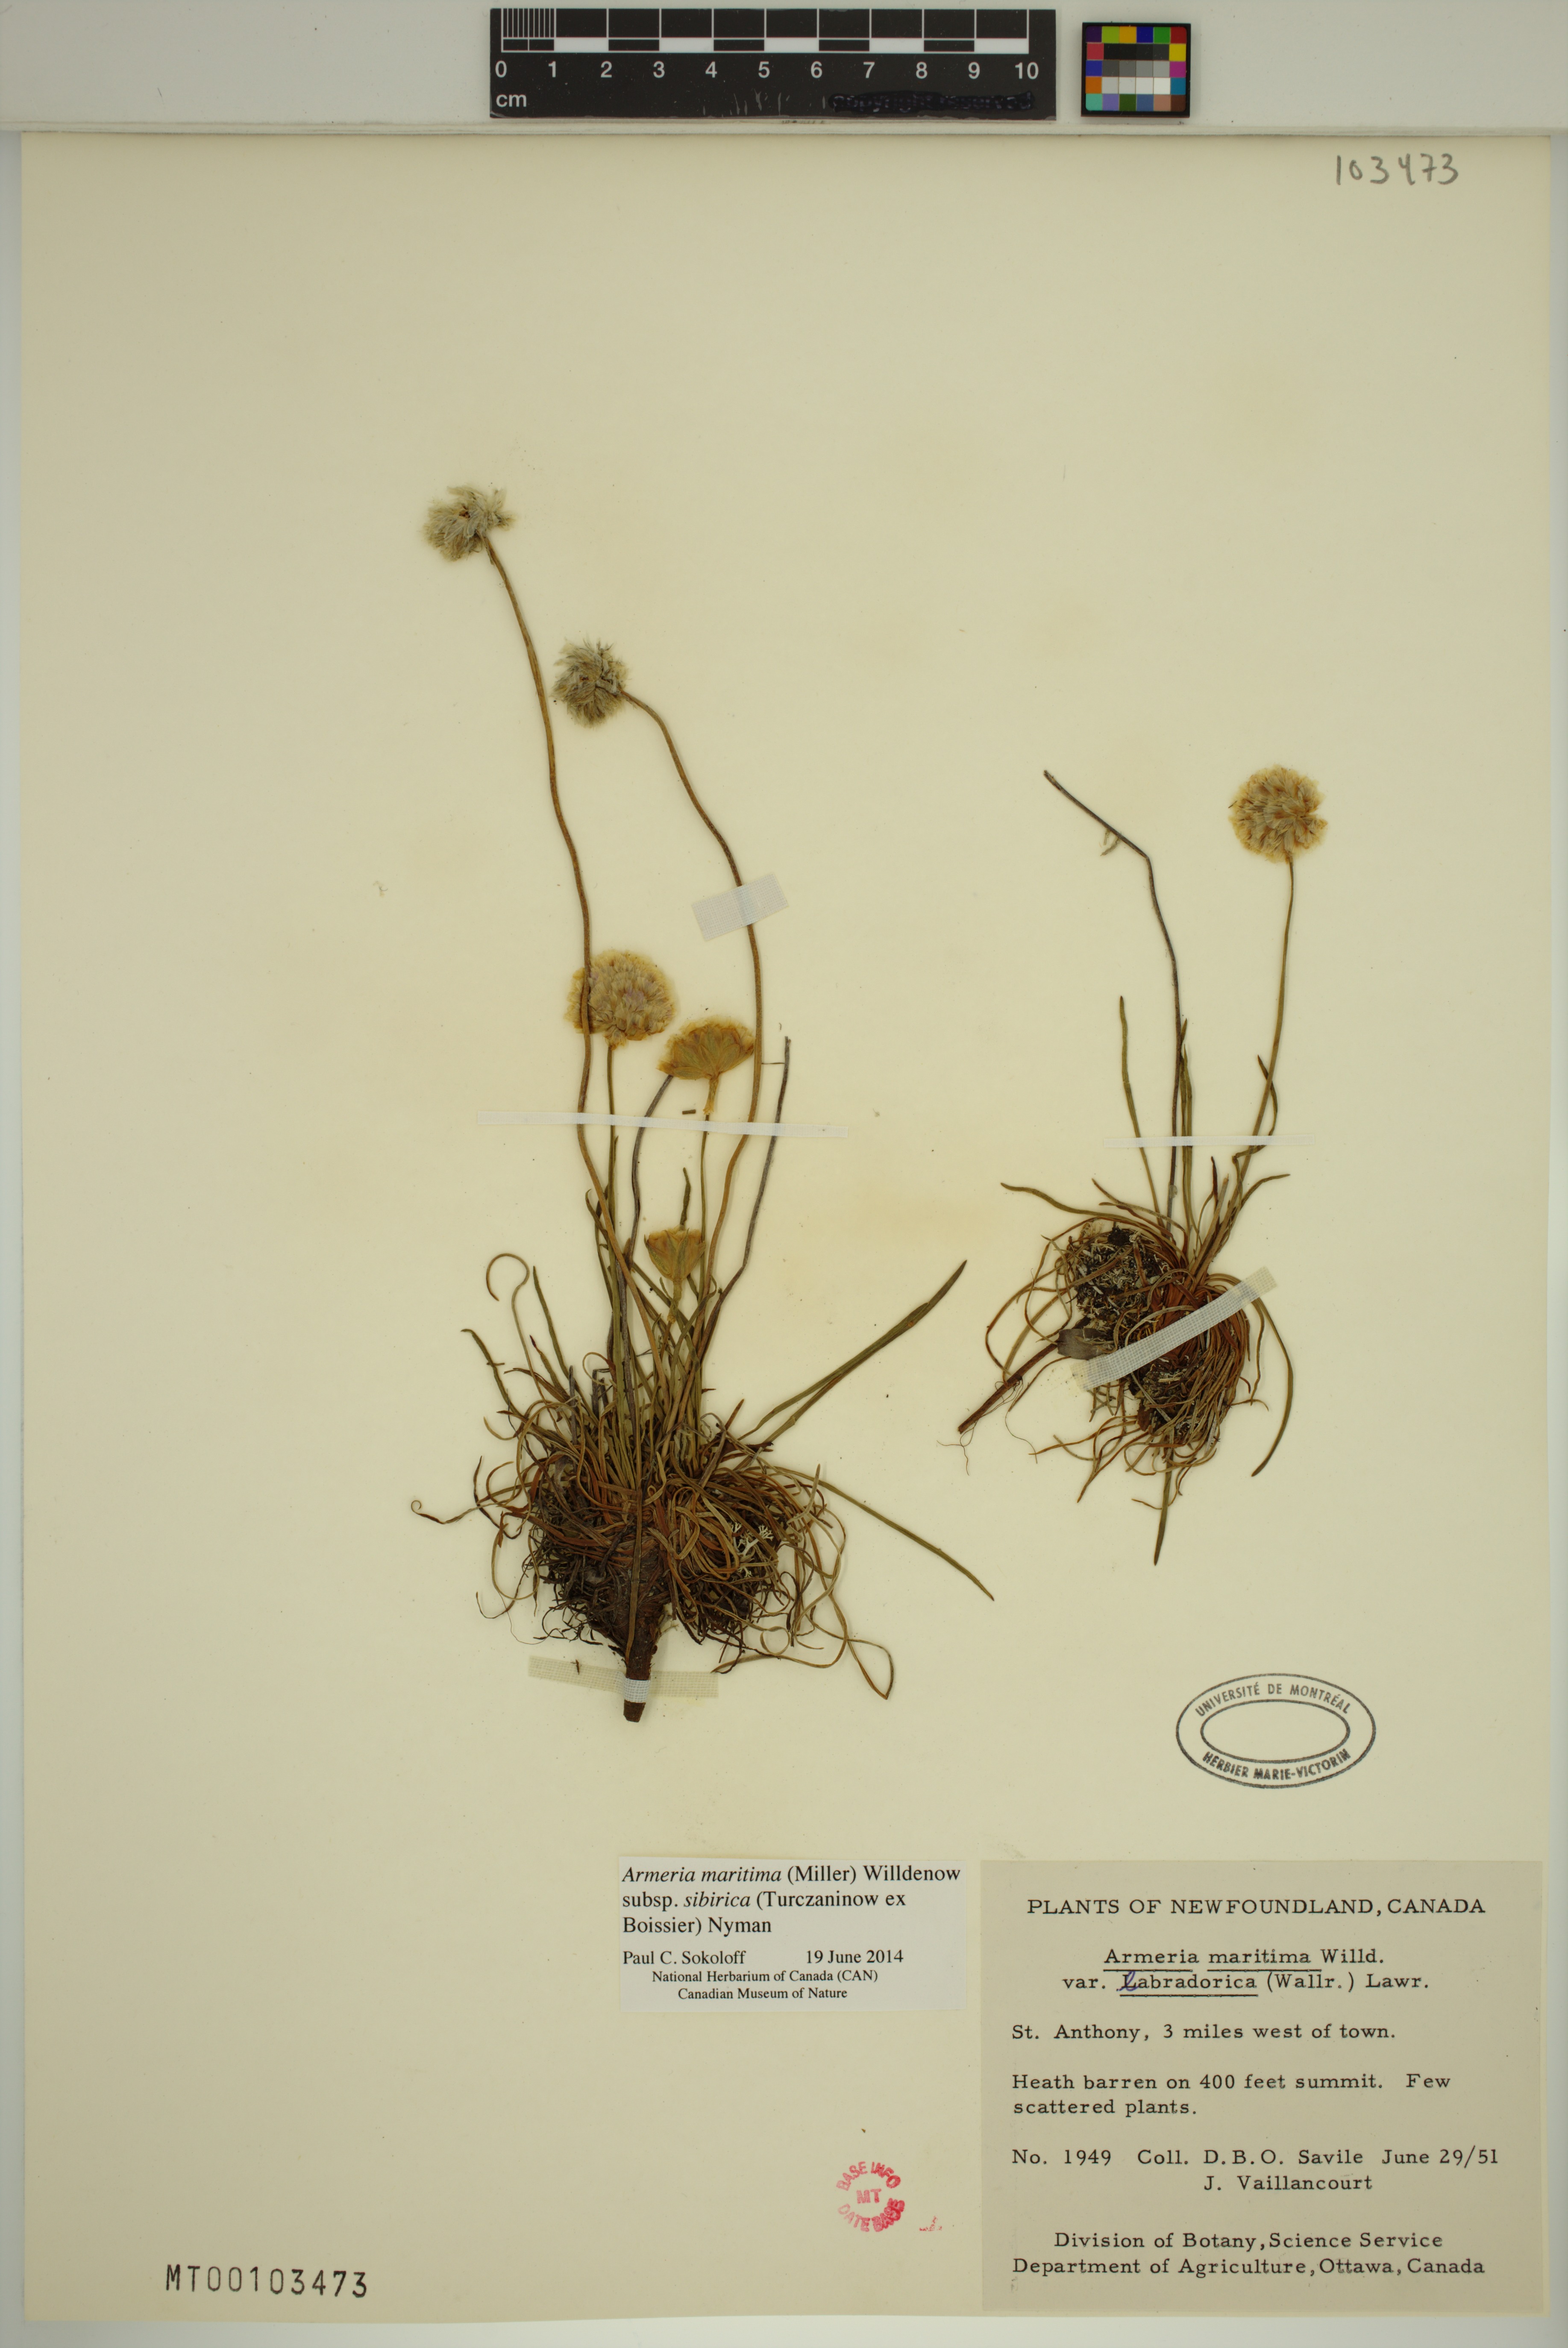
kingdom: Plantae
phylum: Tracheophyta
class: Magnoliopsida
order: Caryophyllales
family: Plumbaginaceae
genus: Armeria
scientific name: Armeria maritima
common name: Thrift
